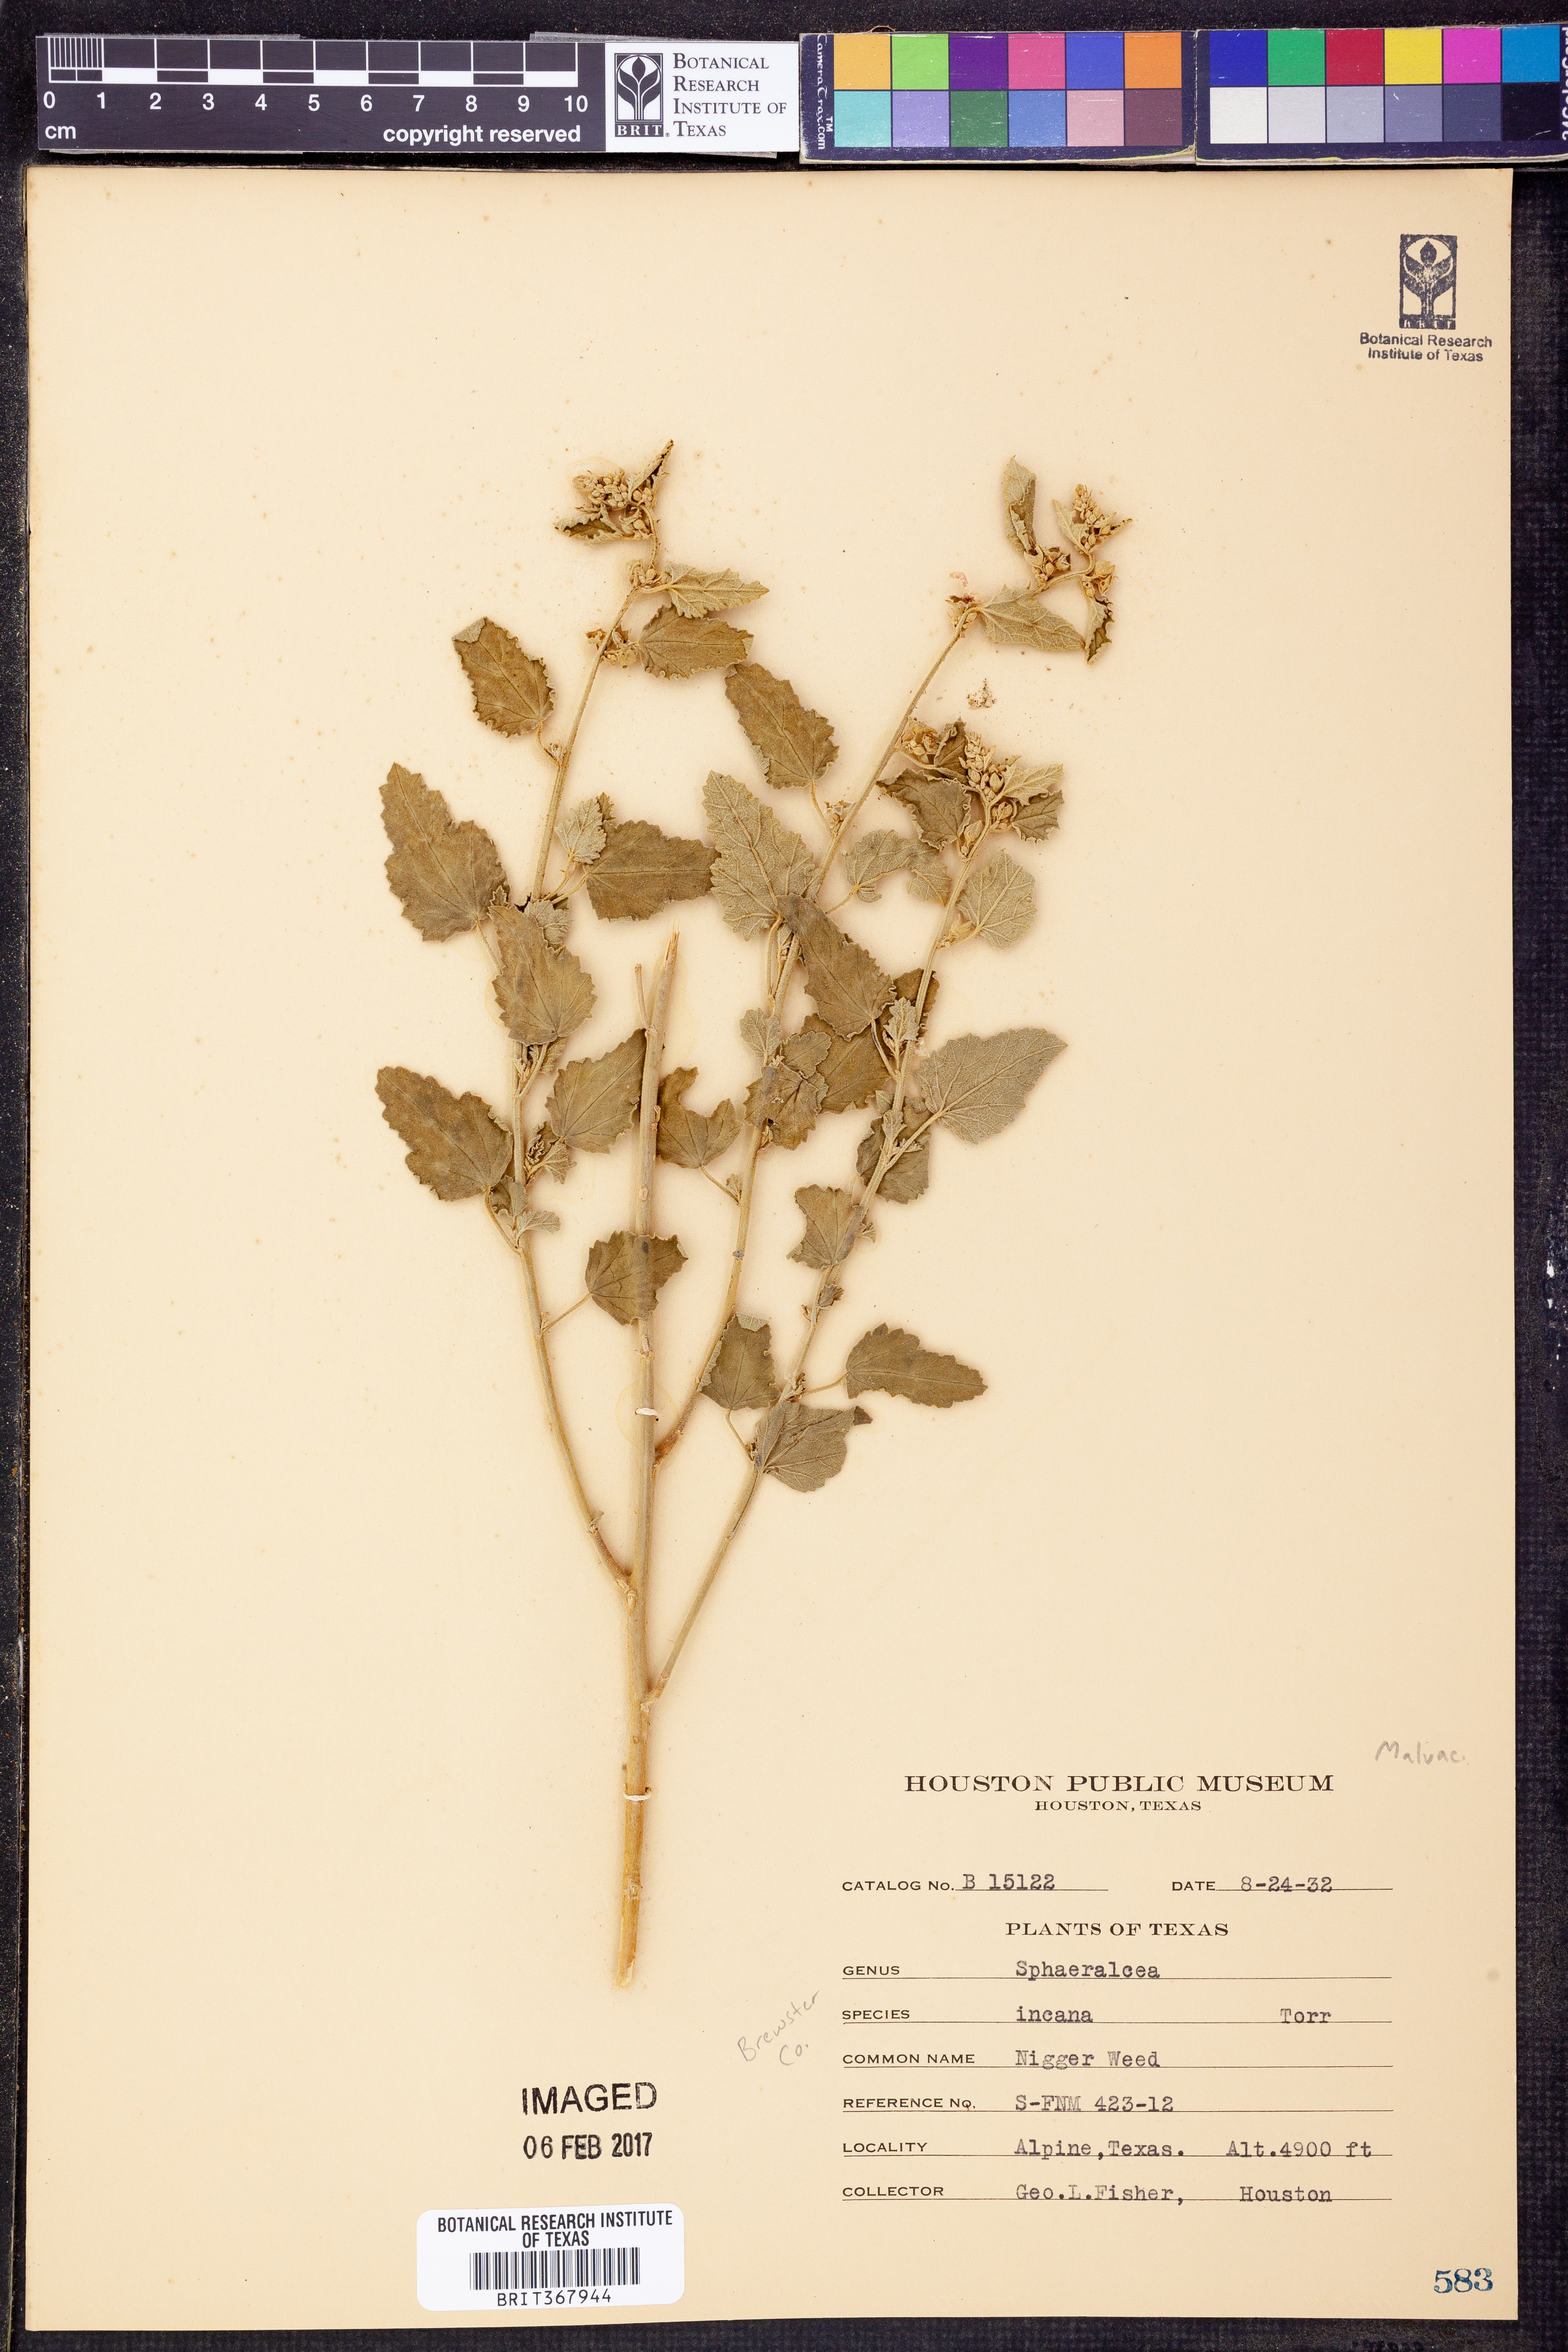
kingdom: Plantae
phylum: Tracheophyta
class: Magnoliopsida
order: Malvales
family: Malvaceae
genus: Sphaeralcea
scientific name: Sphaeralcea incana
